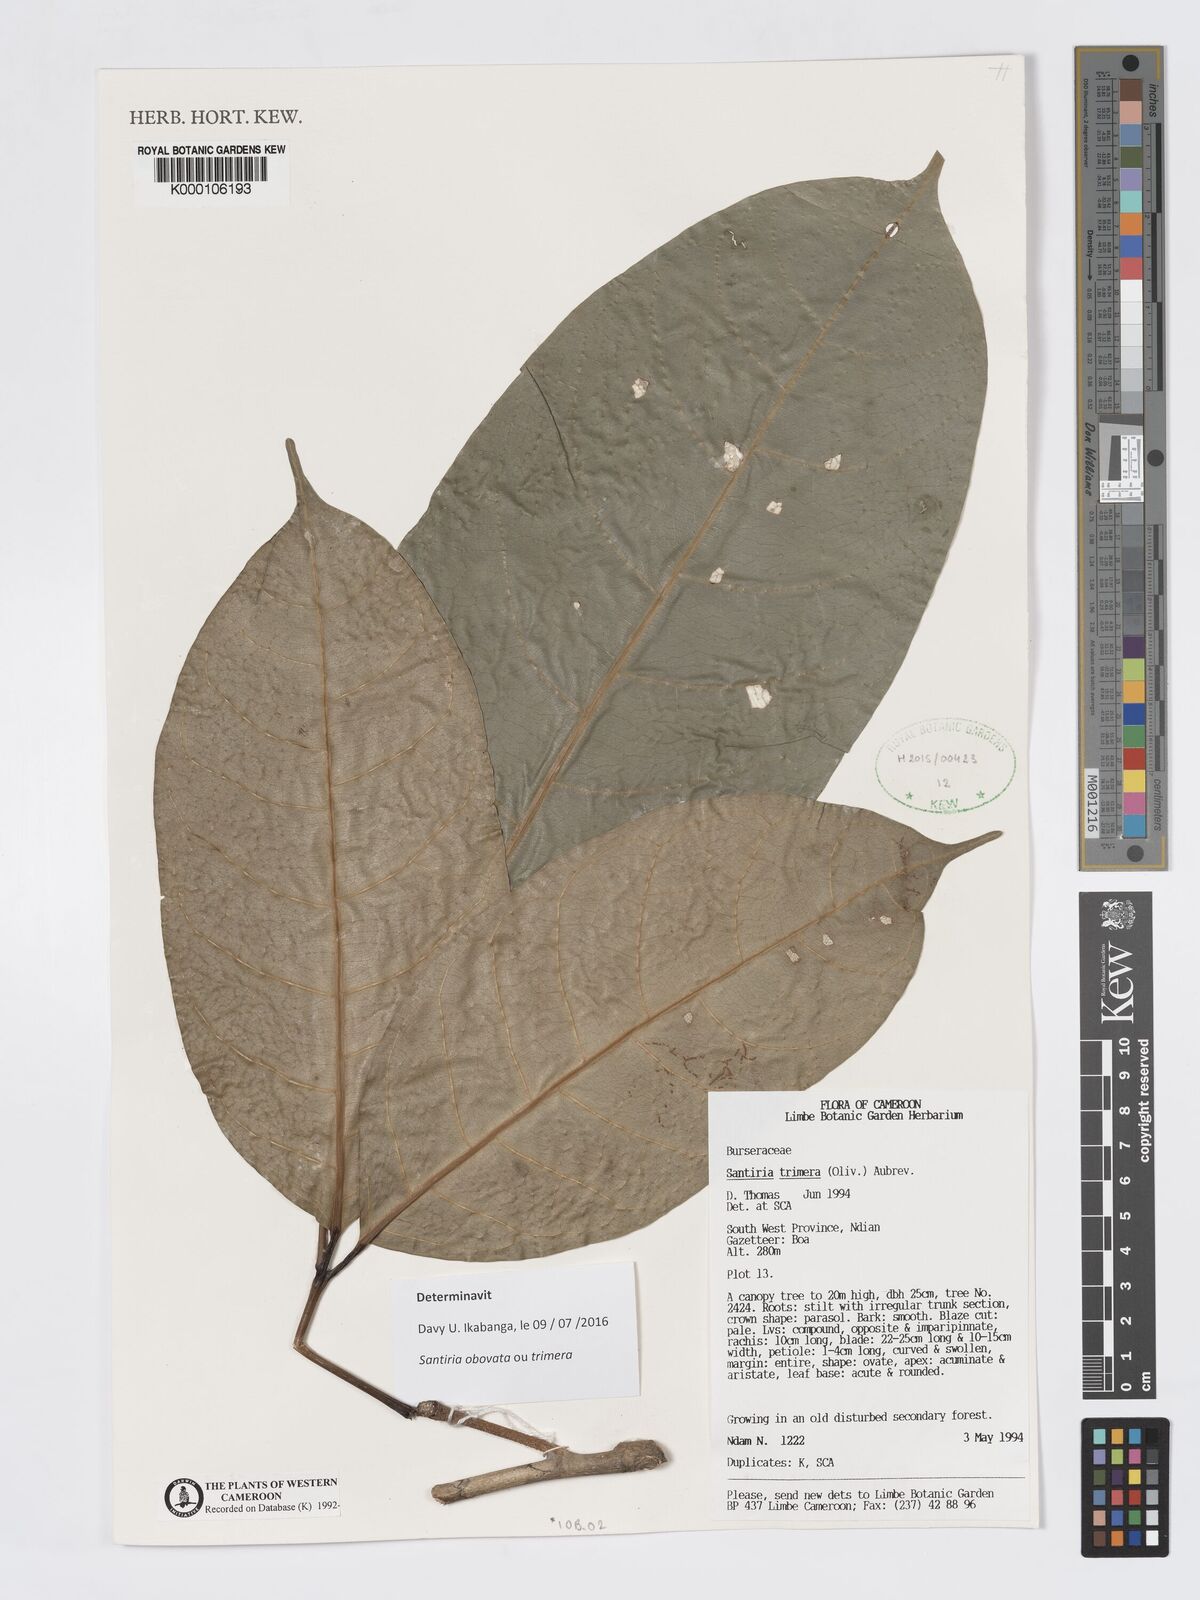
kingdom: Plantae
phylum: Tracheophyta
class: Magnoliopsida
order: Sapindales
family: Burseraceae
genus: Santiria
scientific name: Santiria
